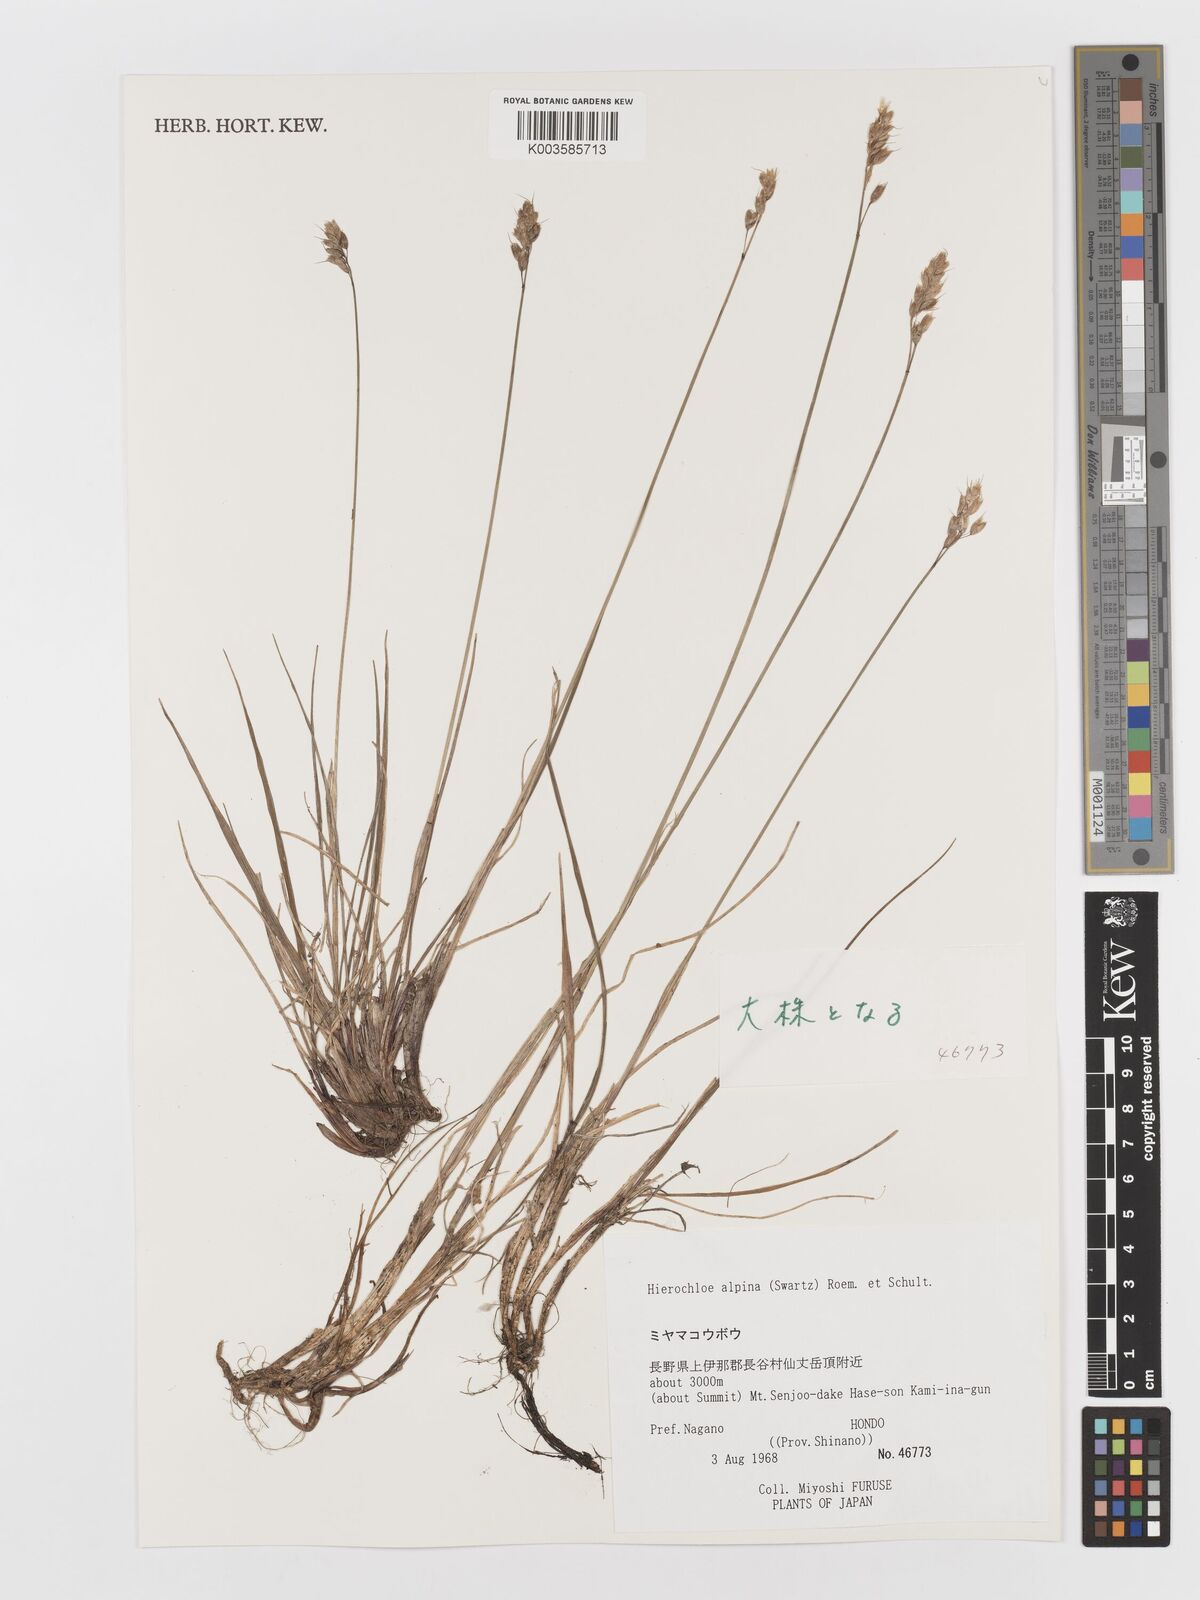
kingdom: Plantae
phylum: Tracheophyta
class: Liliopsida
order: Poales
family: Poaceae
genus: Anthoxanthum
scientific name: Anthoxanthum monticola
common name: Alpine sweetgrass
